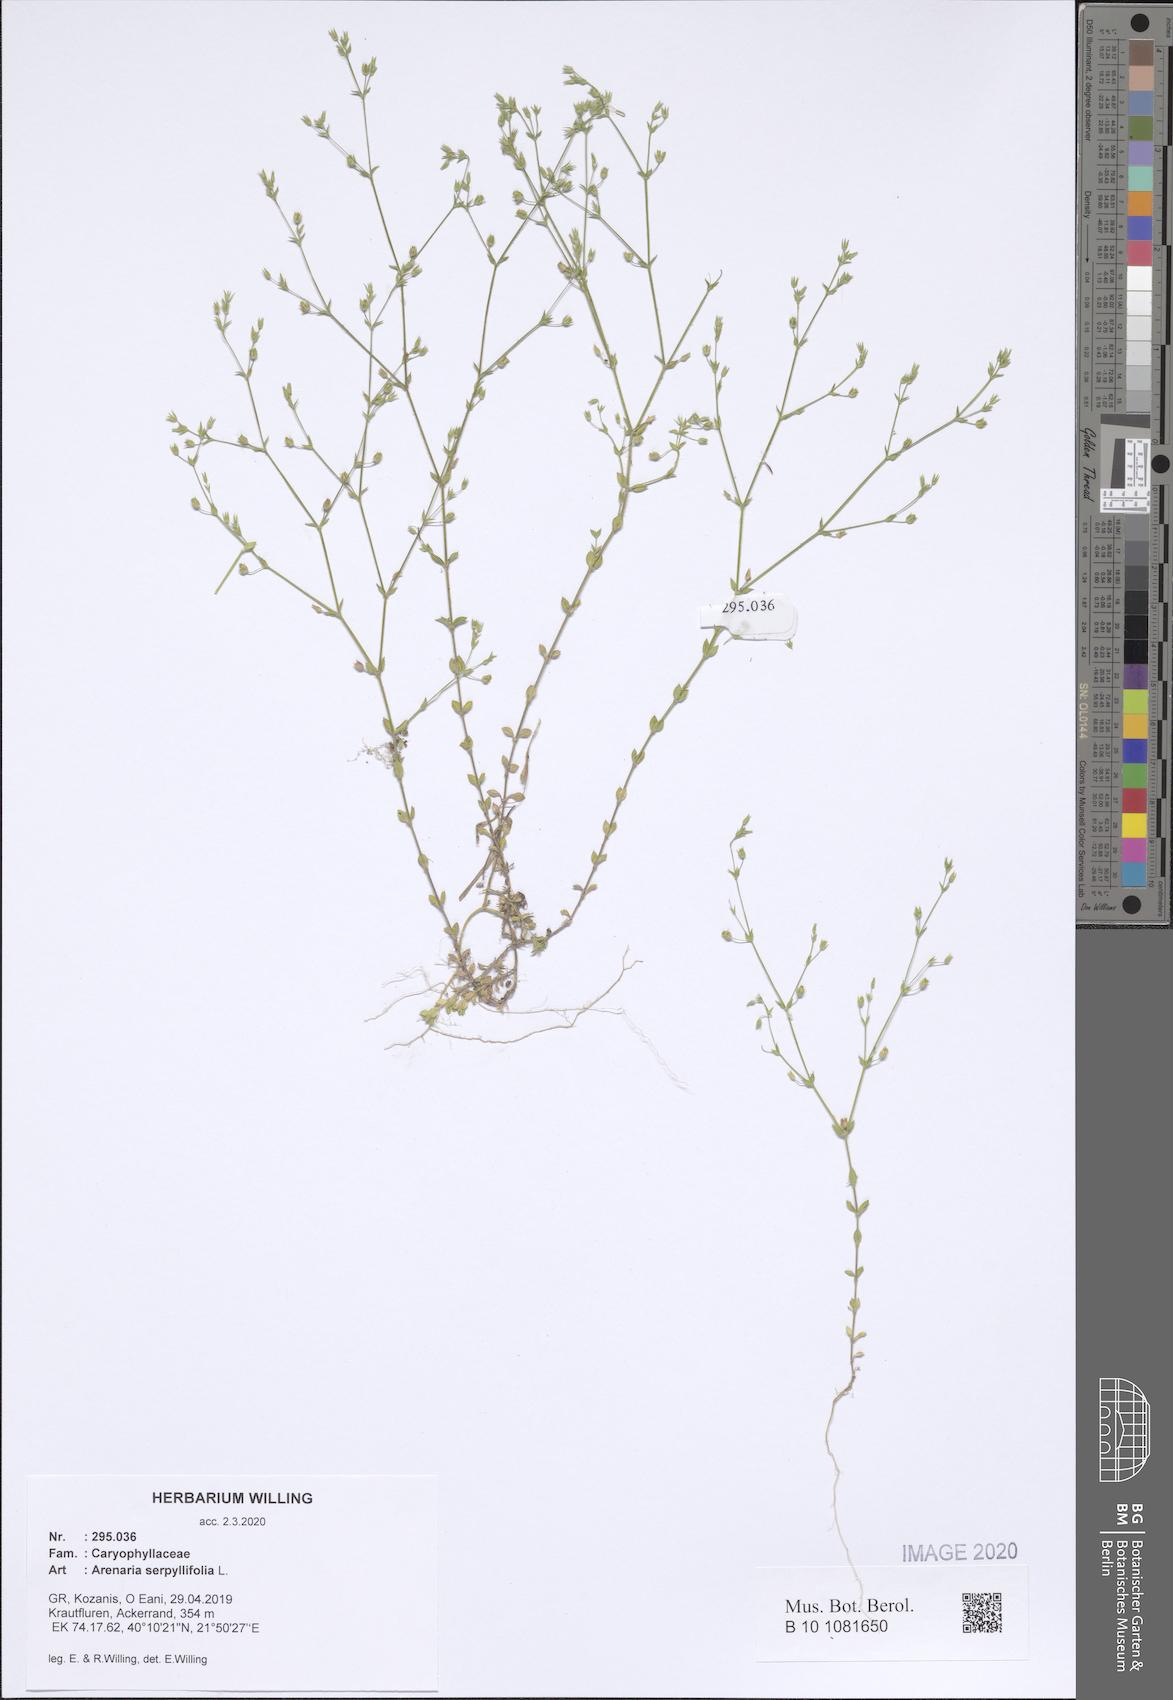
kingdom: Plantae
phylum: Tracheophyta
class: Magnoliopsida
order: Caryophyllales
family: Caryophyllaceae
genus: Arenaria
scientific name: Arenaria serpyllifolia
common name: Thyme-leaved sandwort
